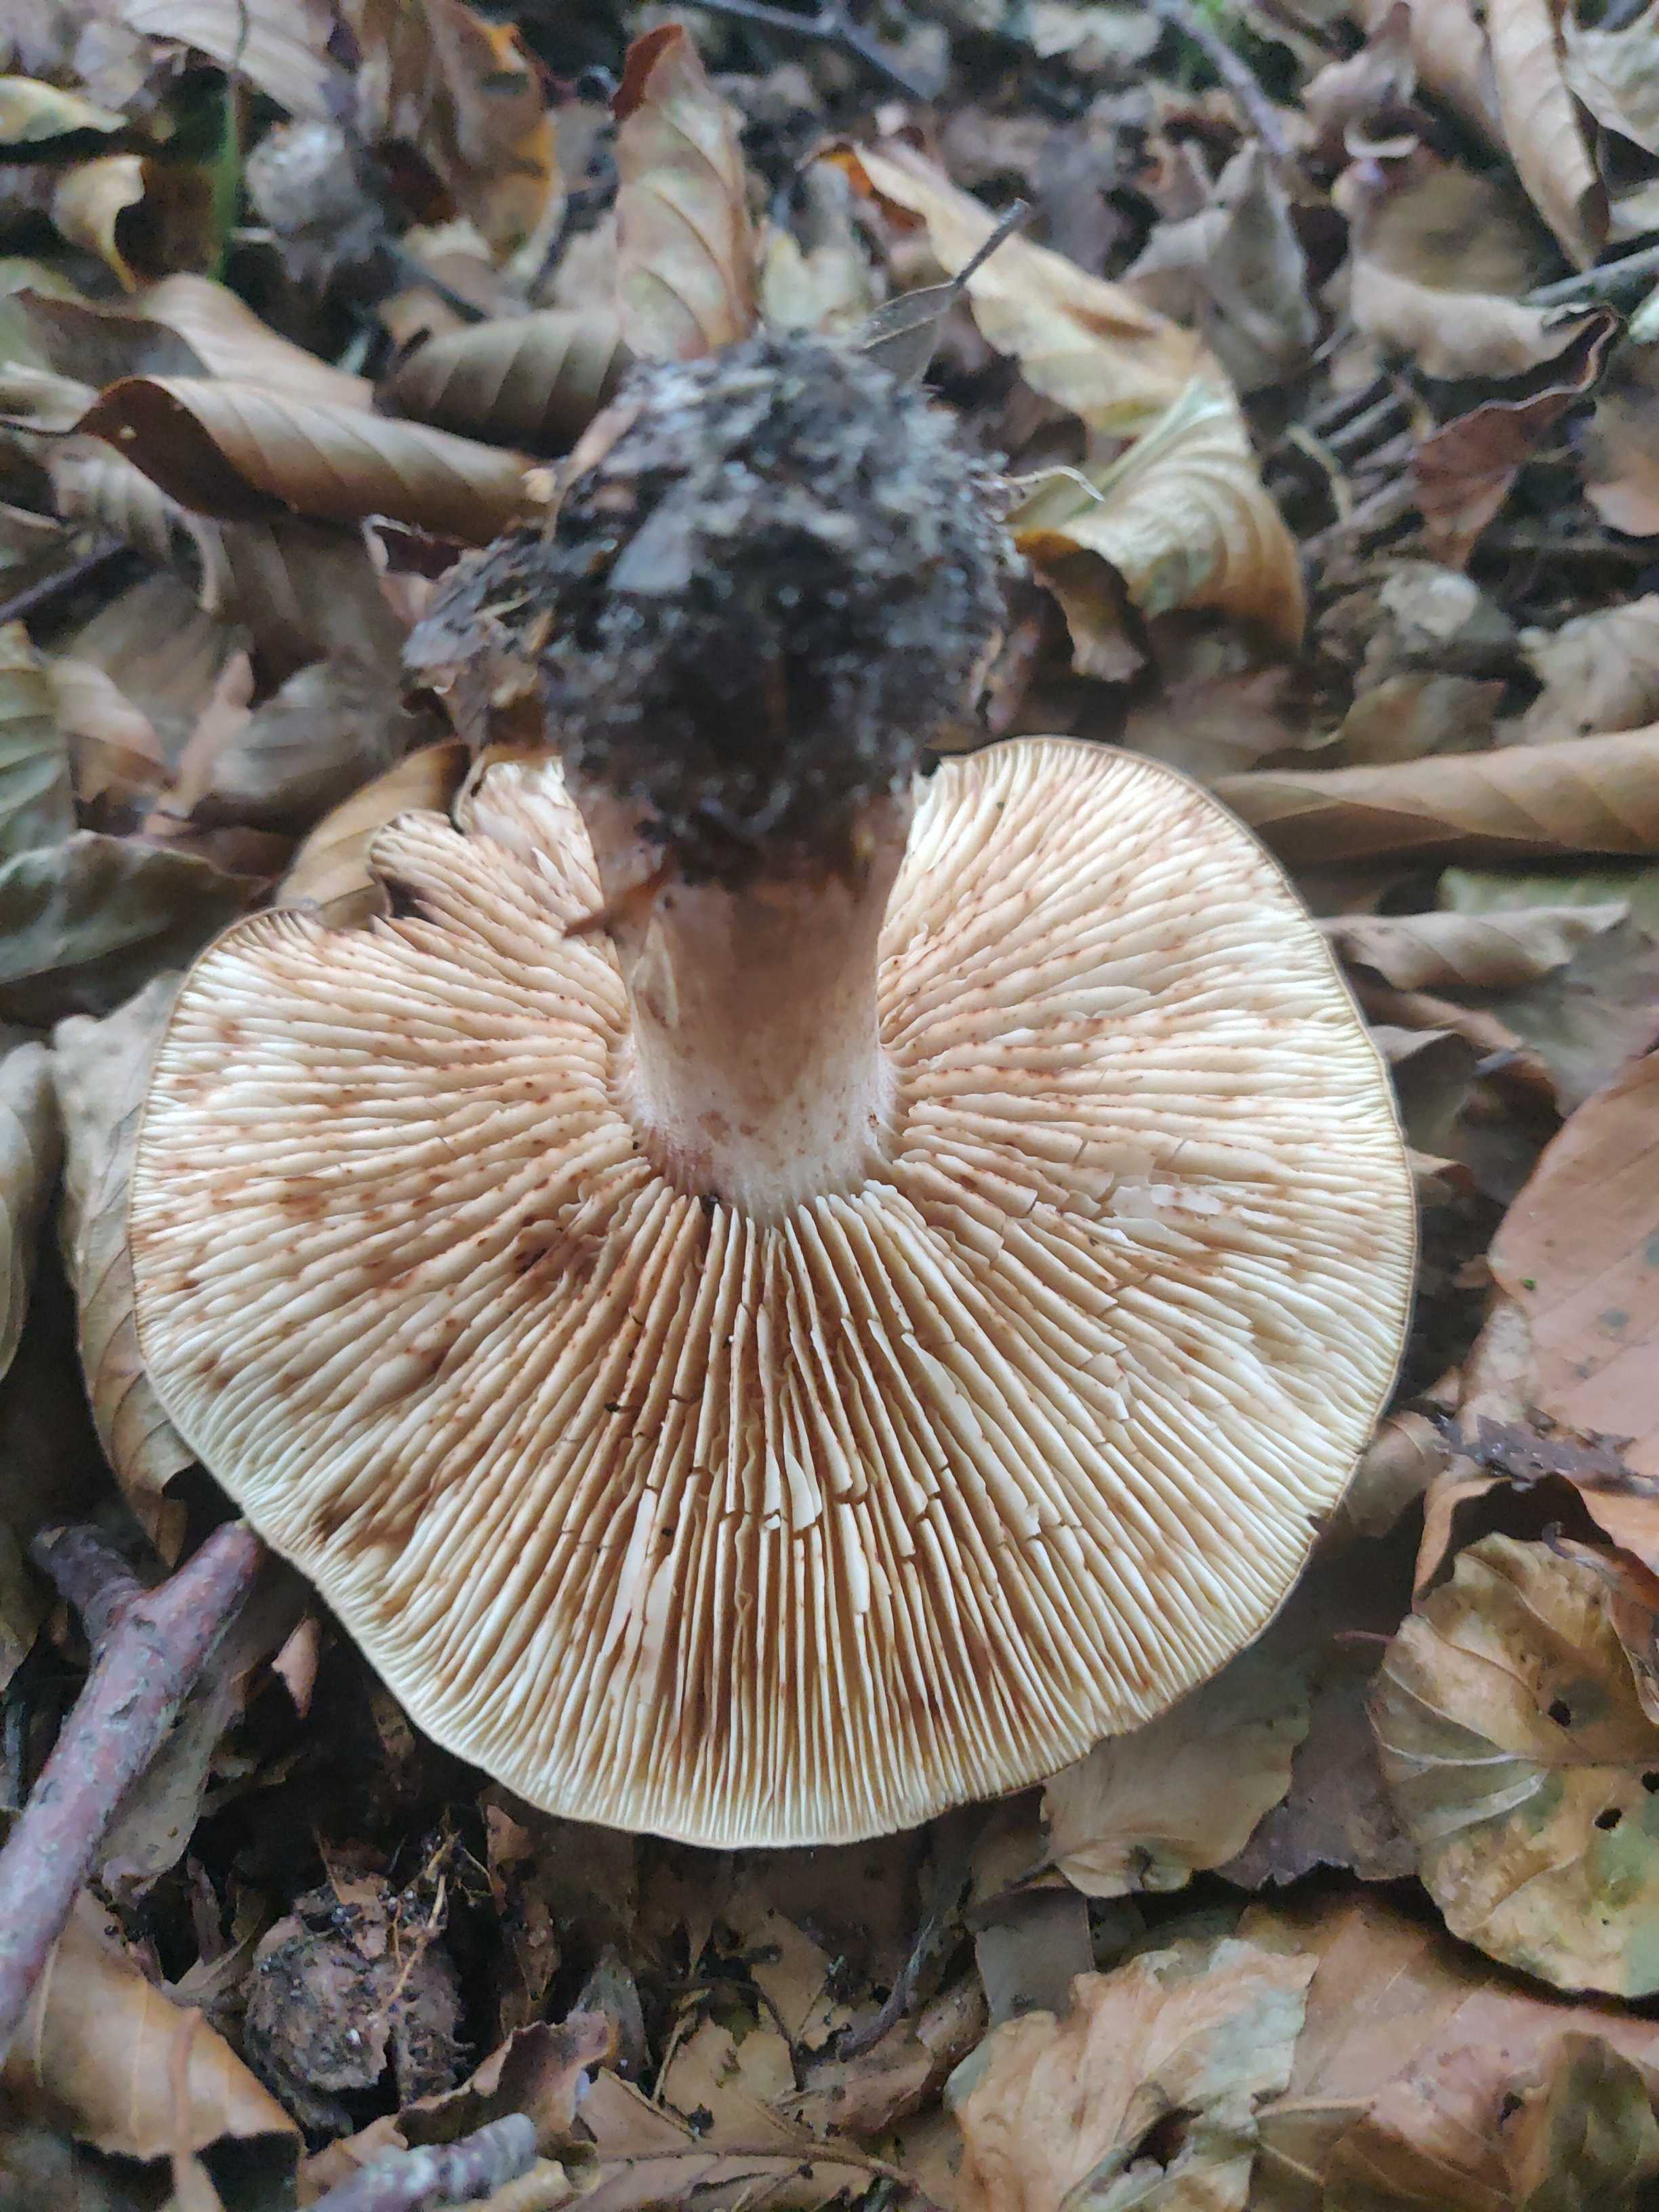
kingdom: Fungi
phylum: Basidiomycota
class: Agaricomycetes
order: Agaricales
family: Tricholomataceae
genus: Tricholoma
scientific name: Tricholoma ustale
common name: sveden ridderhat
